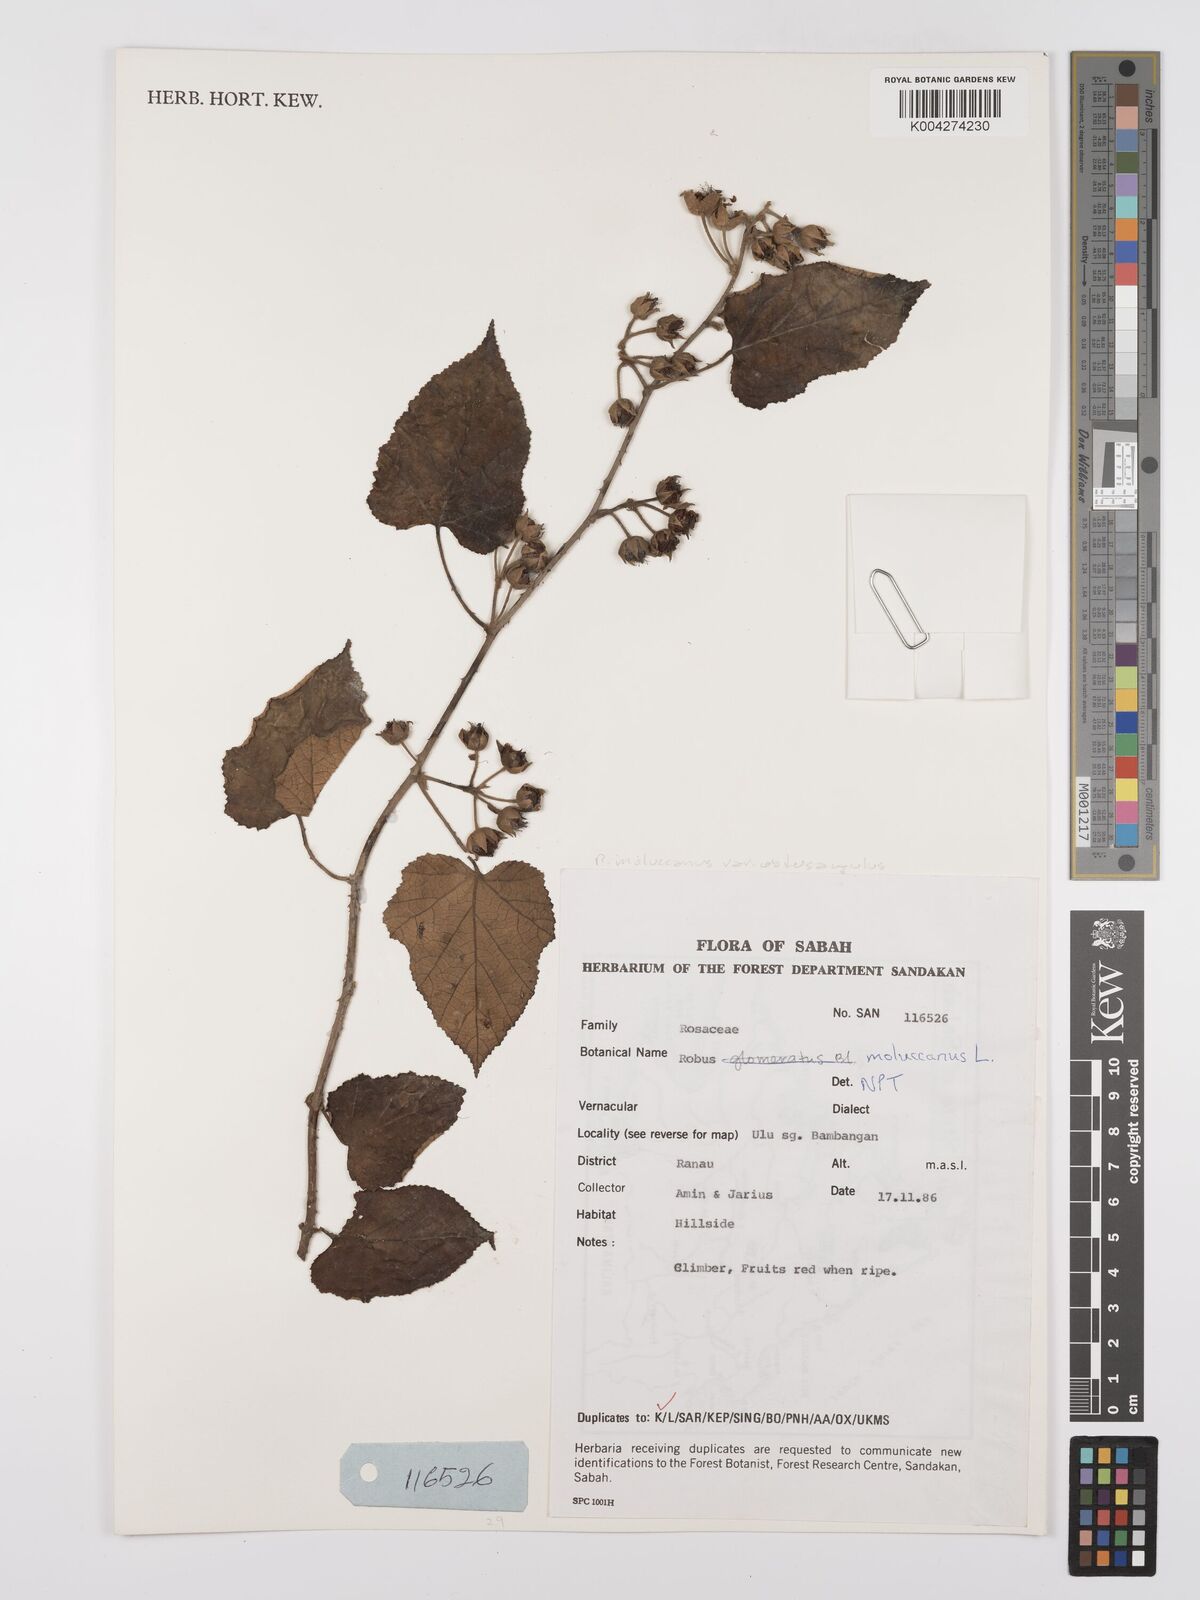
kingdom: Plantae
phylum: Tracheophyta
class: Magnoliopsida
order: Rosales
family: Rosaceae
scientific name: Rosaceae
